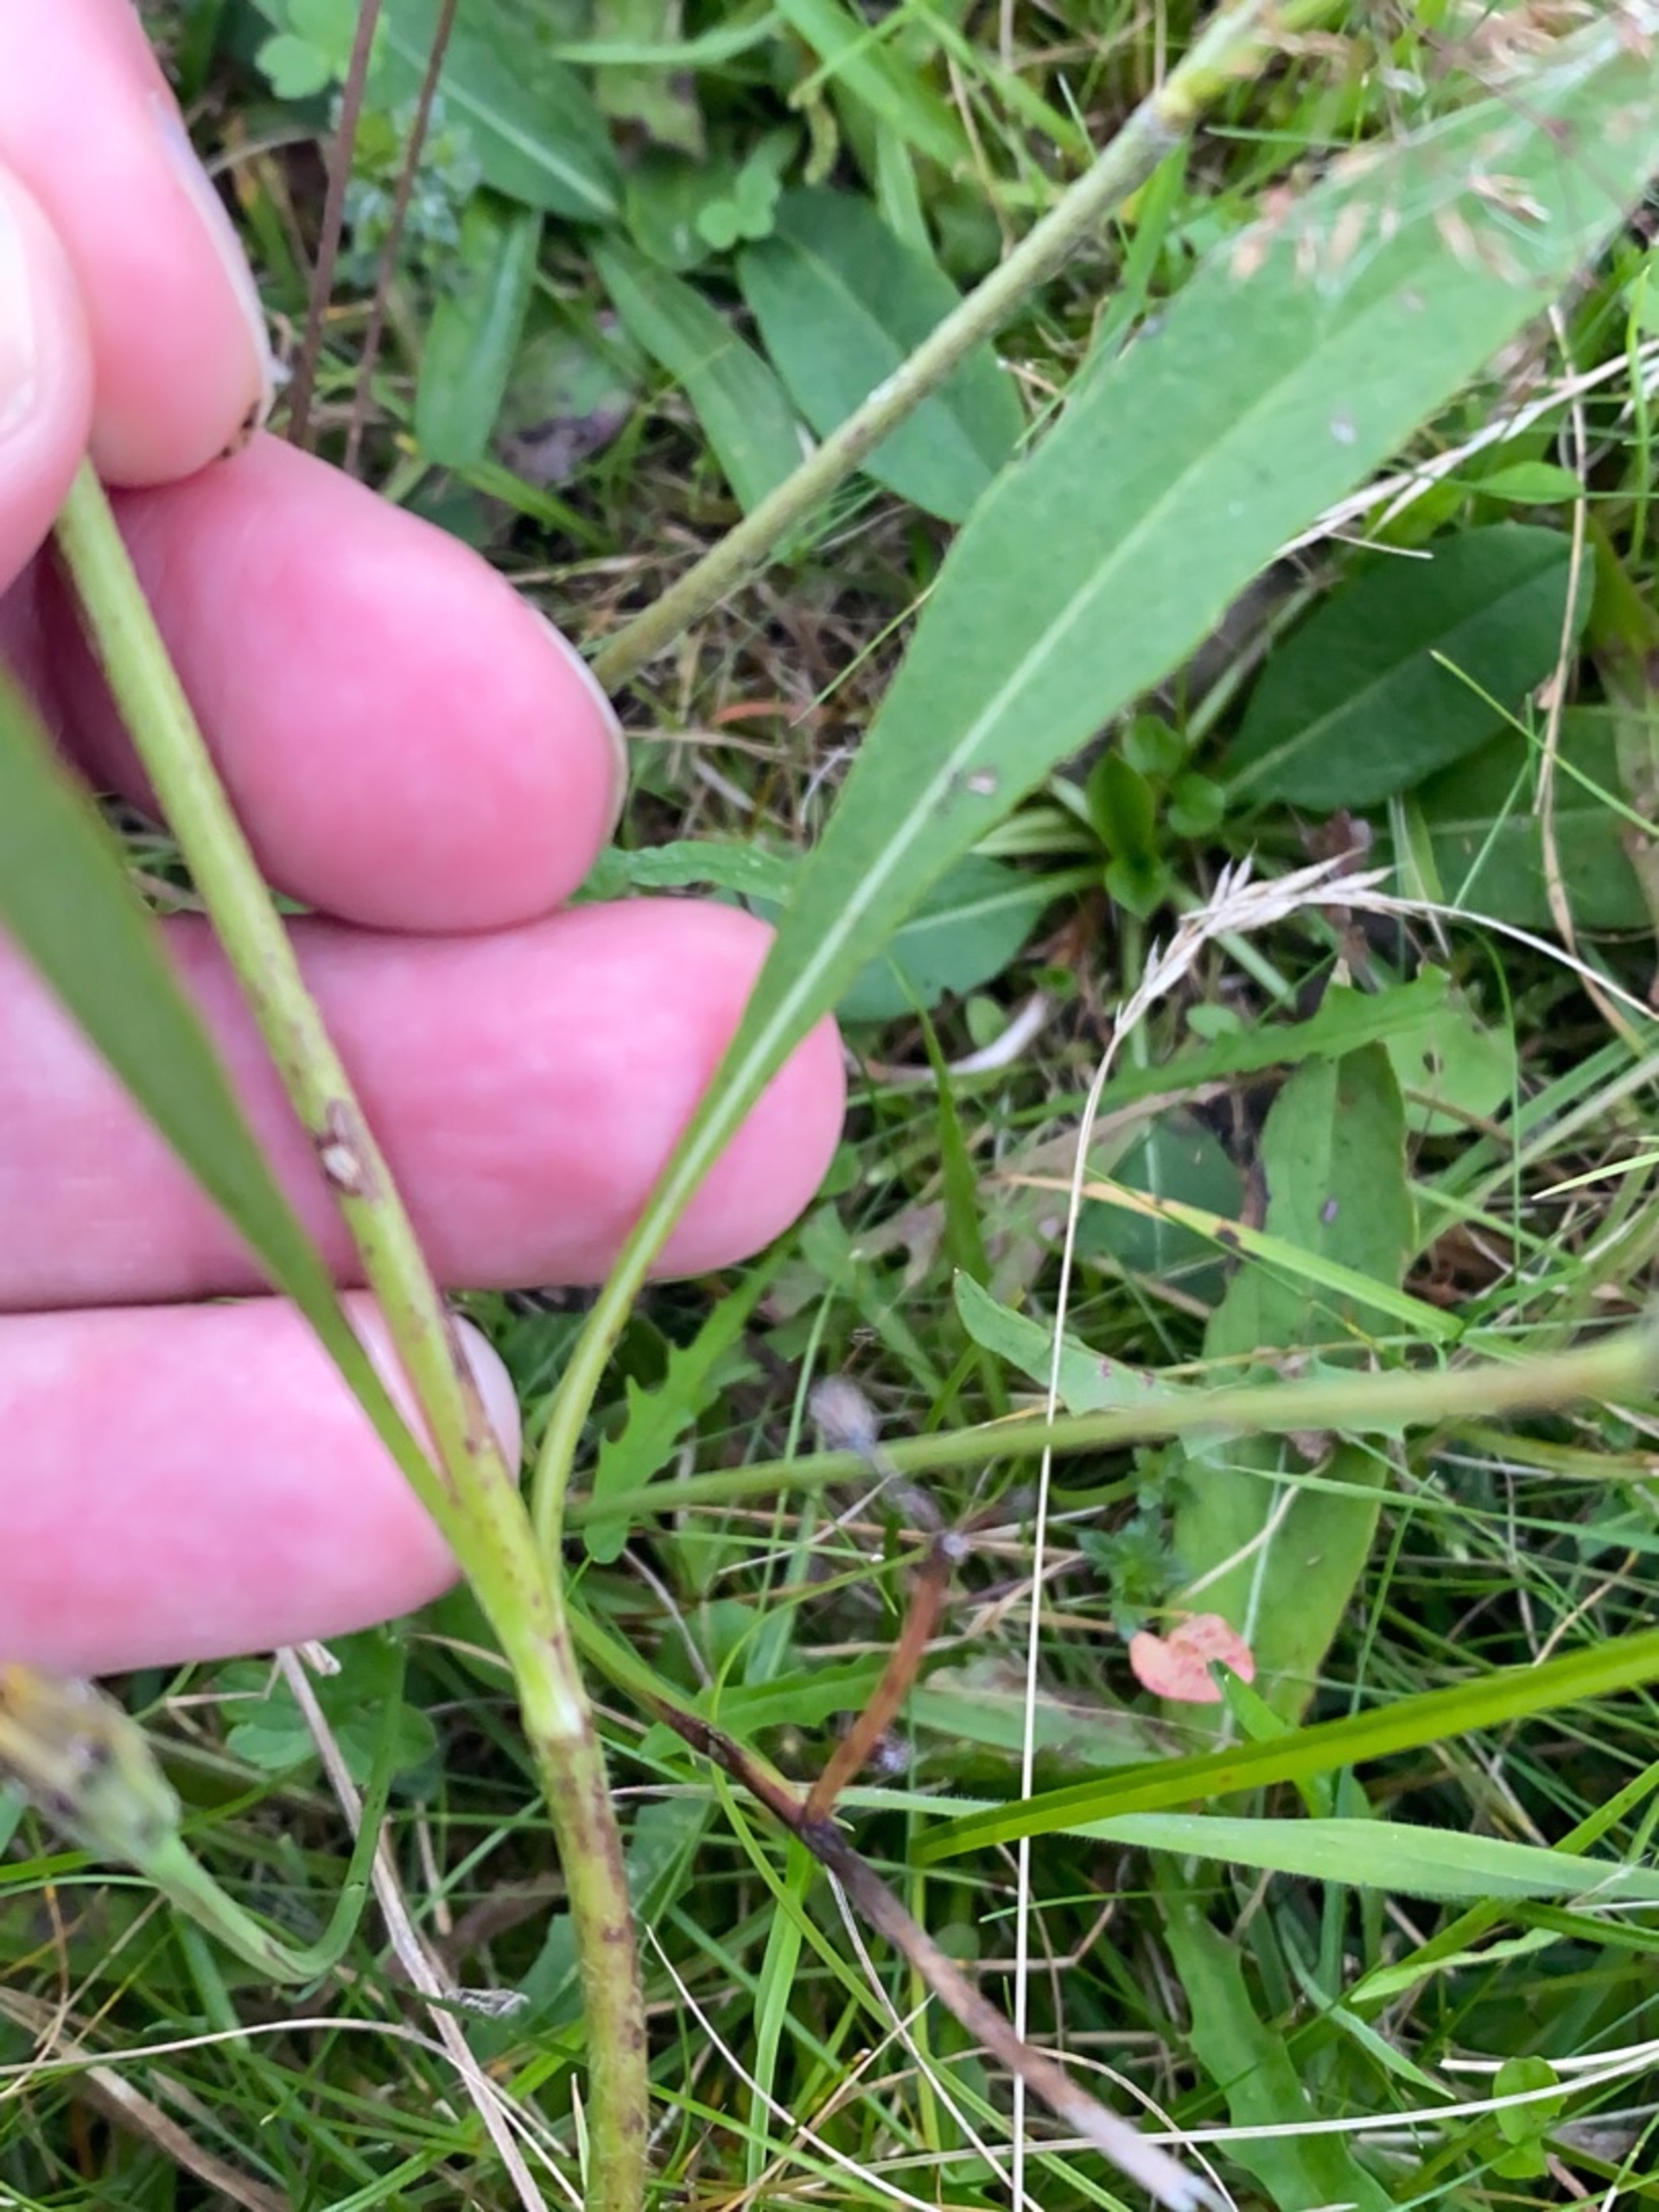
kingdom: Plantae
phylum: Tracheophyta
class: Magnoliopsida
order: Dipsacales
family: Caprifoliaceae
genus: Succisa
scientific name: Succisa pratensis
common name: Djævelsbid
